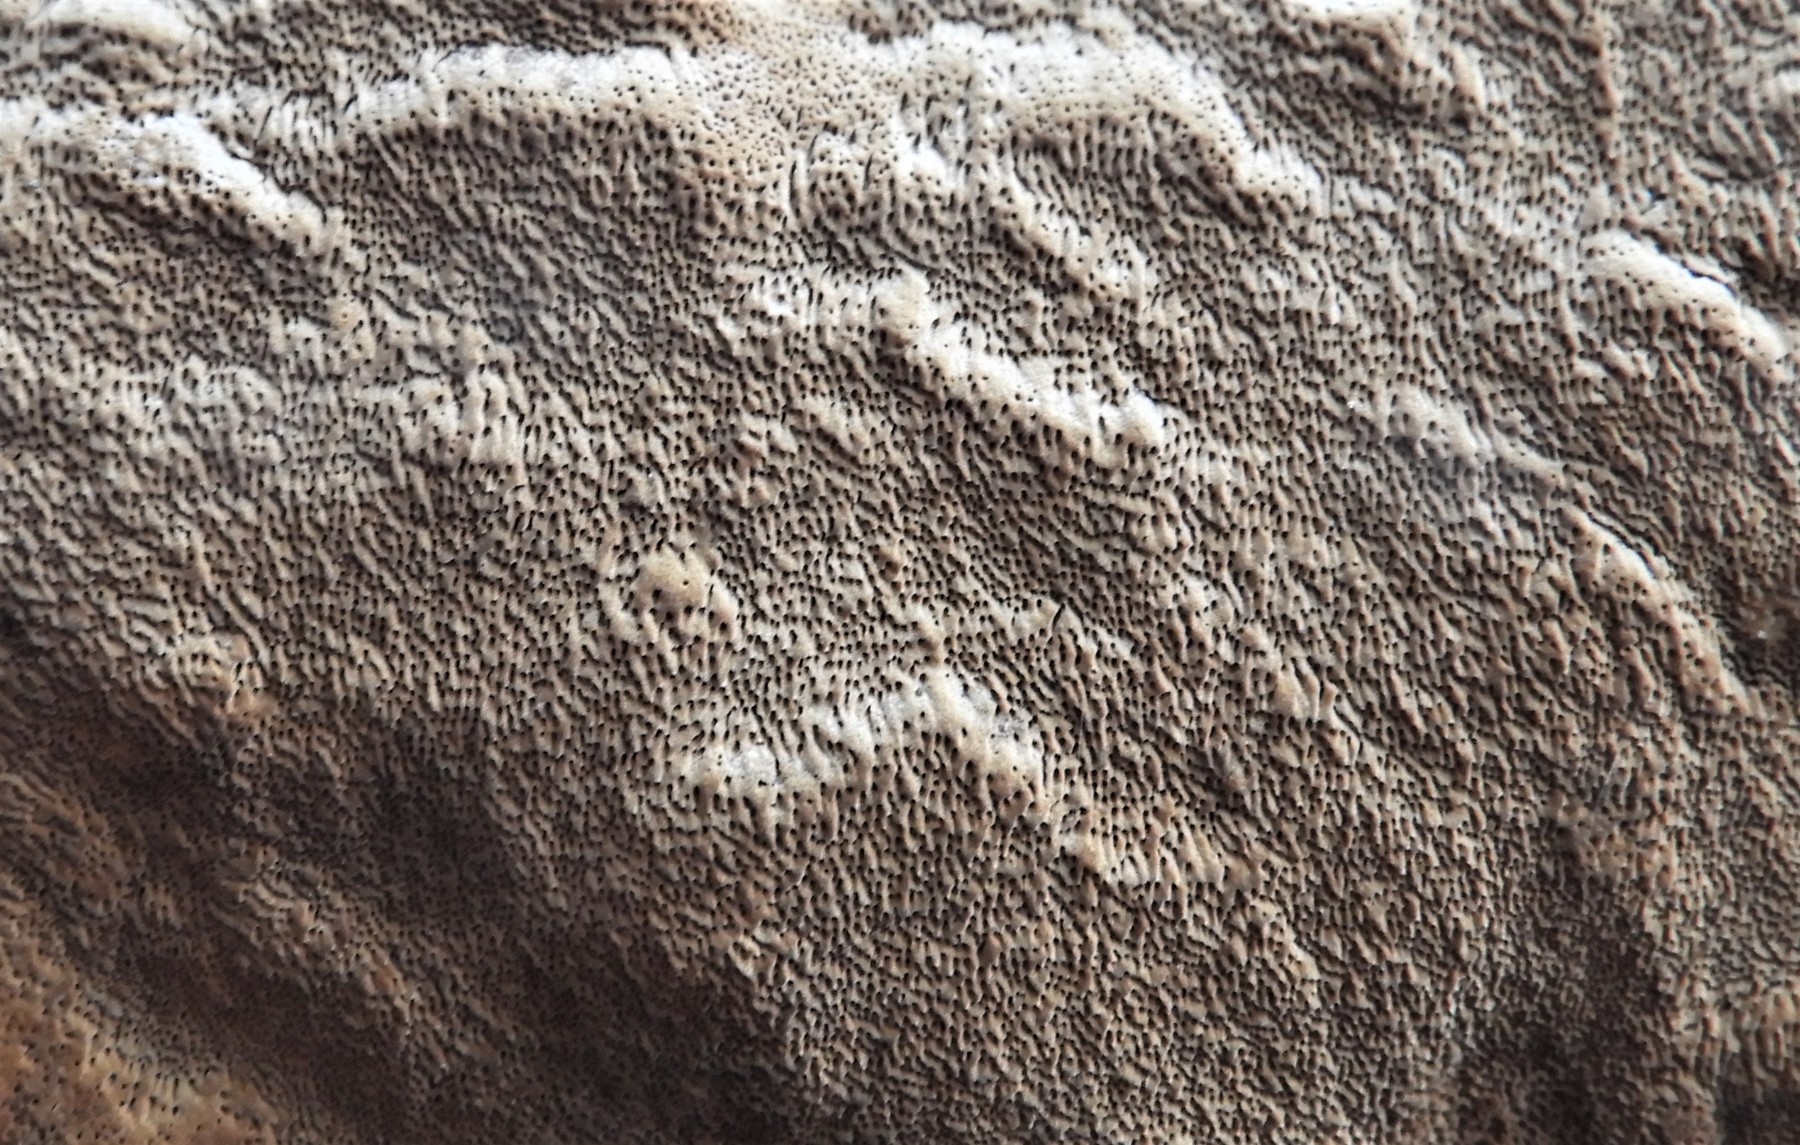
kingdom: Fungi
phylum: Basidiomycota
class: Agaricomycetes
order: Hymenochaetales
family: Hymenochaetaceae
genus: Fuscoporia
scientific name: Fuscoporia
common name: Ildporesvamp
